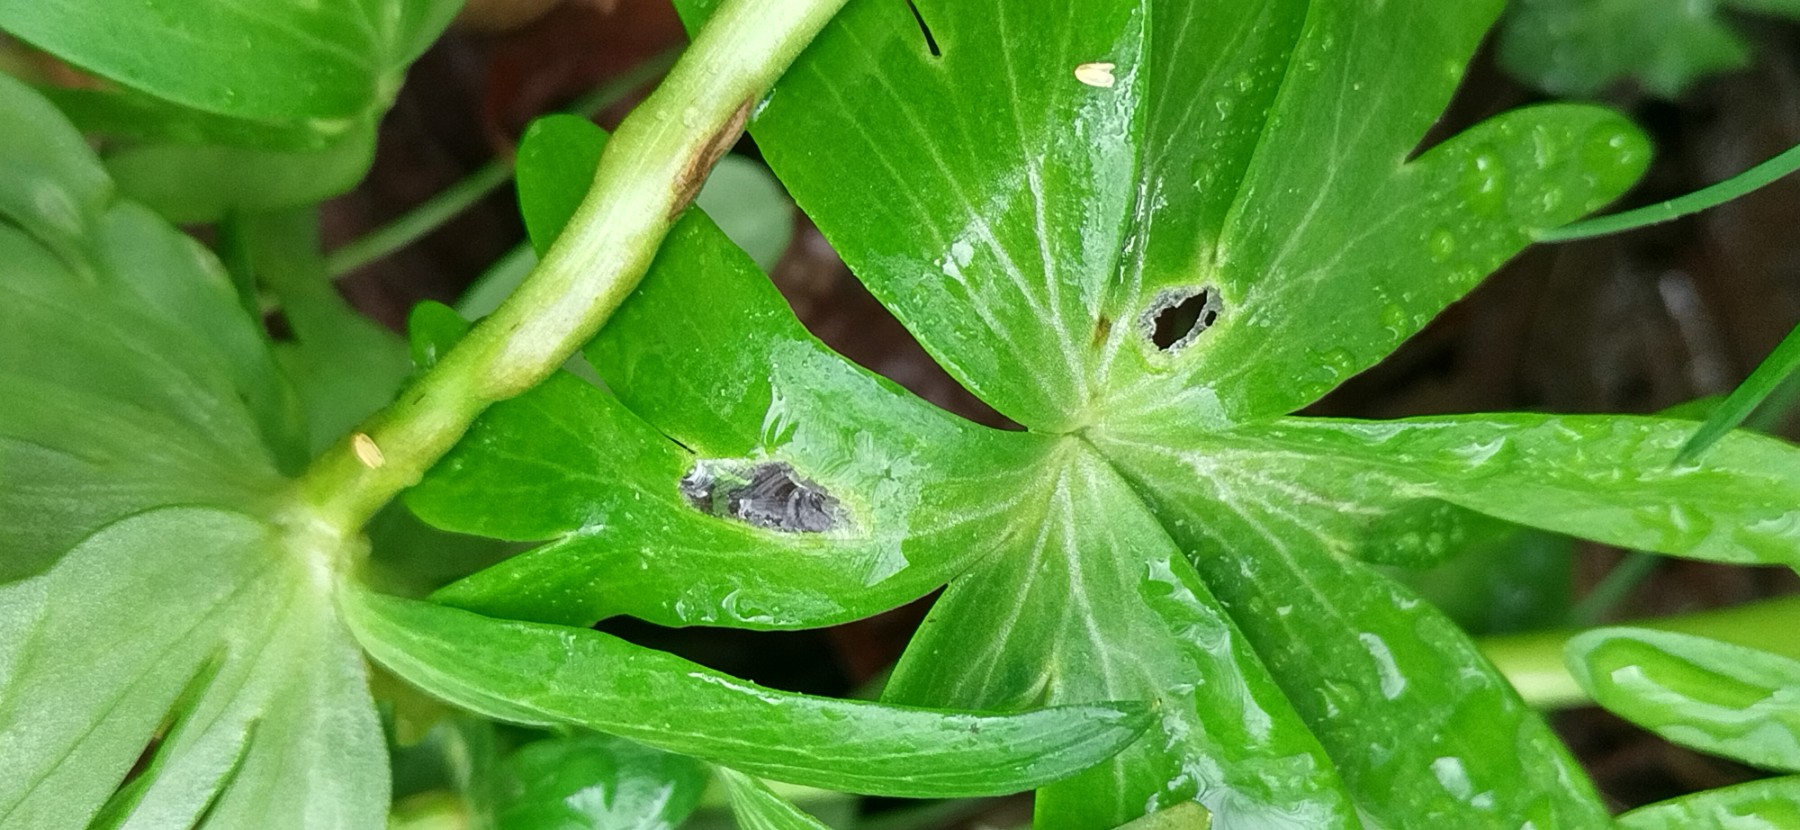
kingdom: Fungi
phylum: Basidiomycota
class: Ustilaginomycetes
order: Urocystidales
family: Urocystidaceae
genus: Urocystis
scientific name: Urocystis eranthidis
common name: erantis-brand
